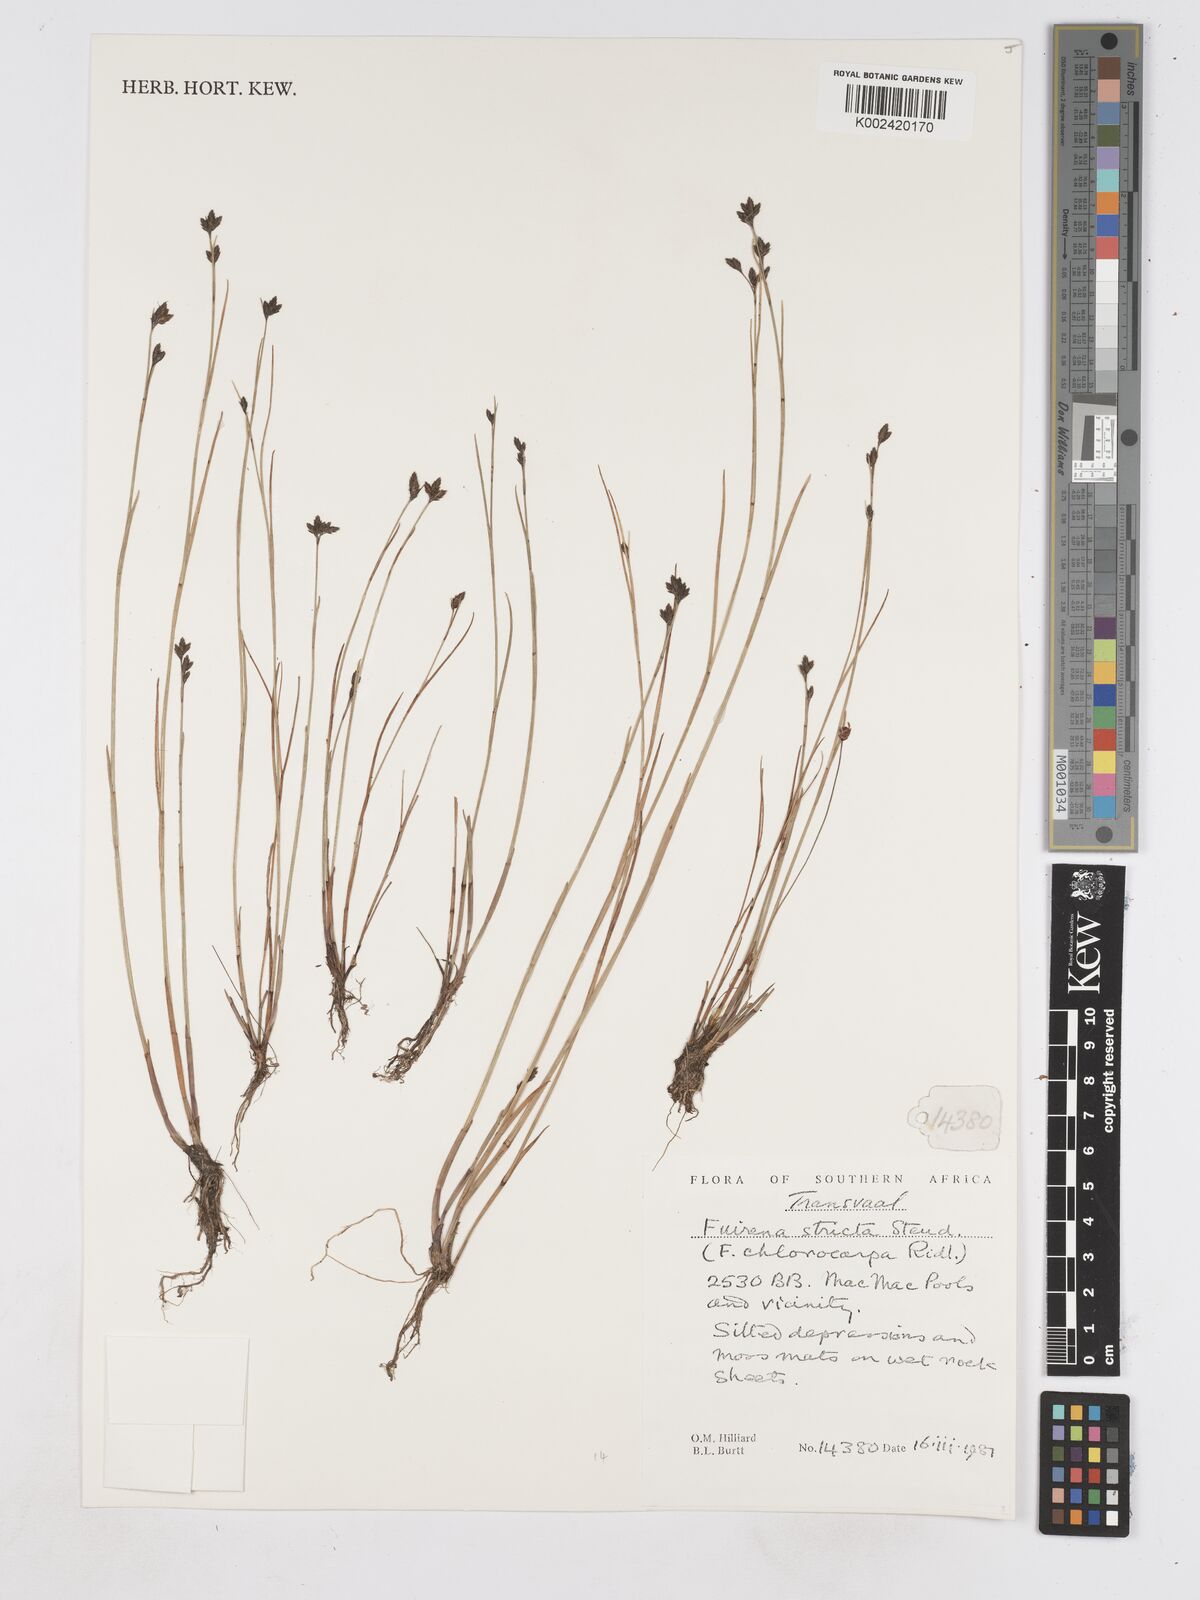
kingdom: Plantae
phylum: Tracheophyta
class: Liliopsida
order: Poales
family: Cyperaceae
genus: Fuirena
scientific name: Fuirena stricta
